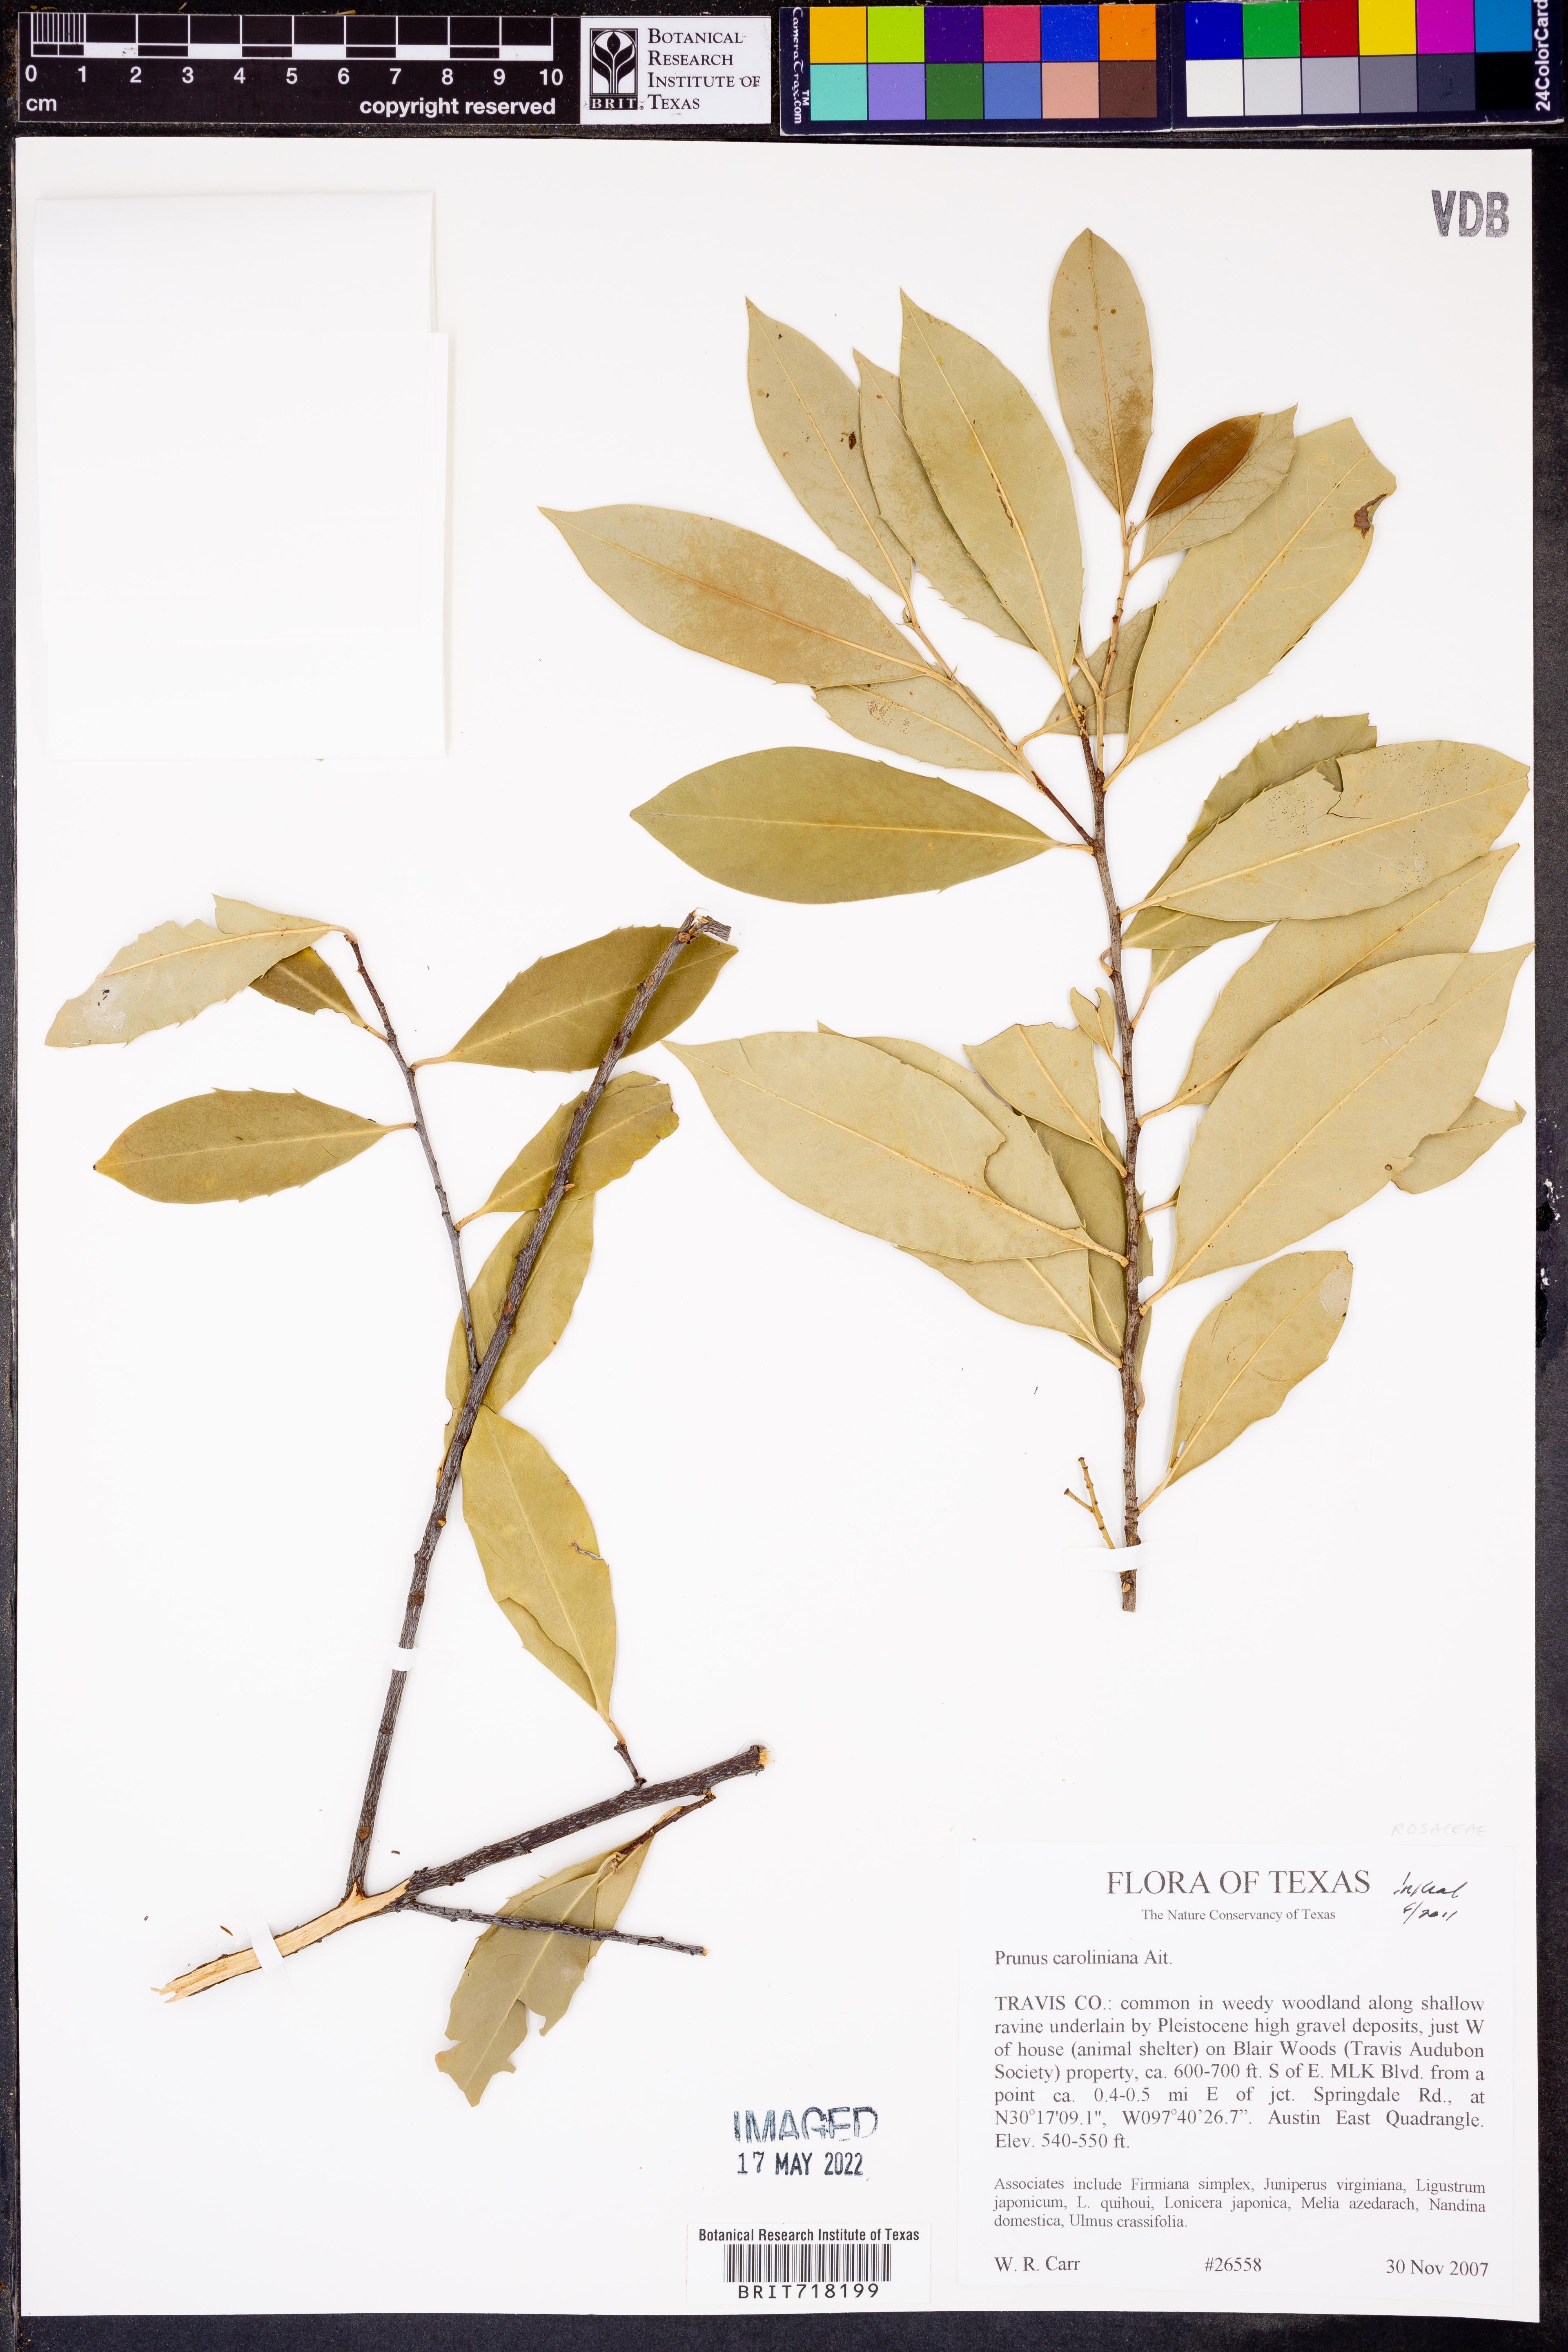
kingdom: Plantae
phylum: Tracheophyta
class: Magnoliopsida
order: Rosales
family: Rosaceae
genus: Prunus
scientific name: Prunus caroliniana
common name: Carolina laurel cherry
